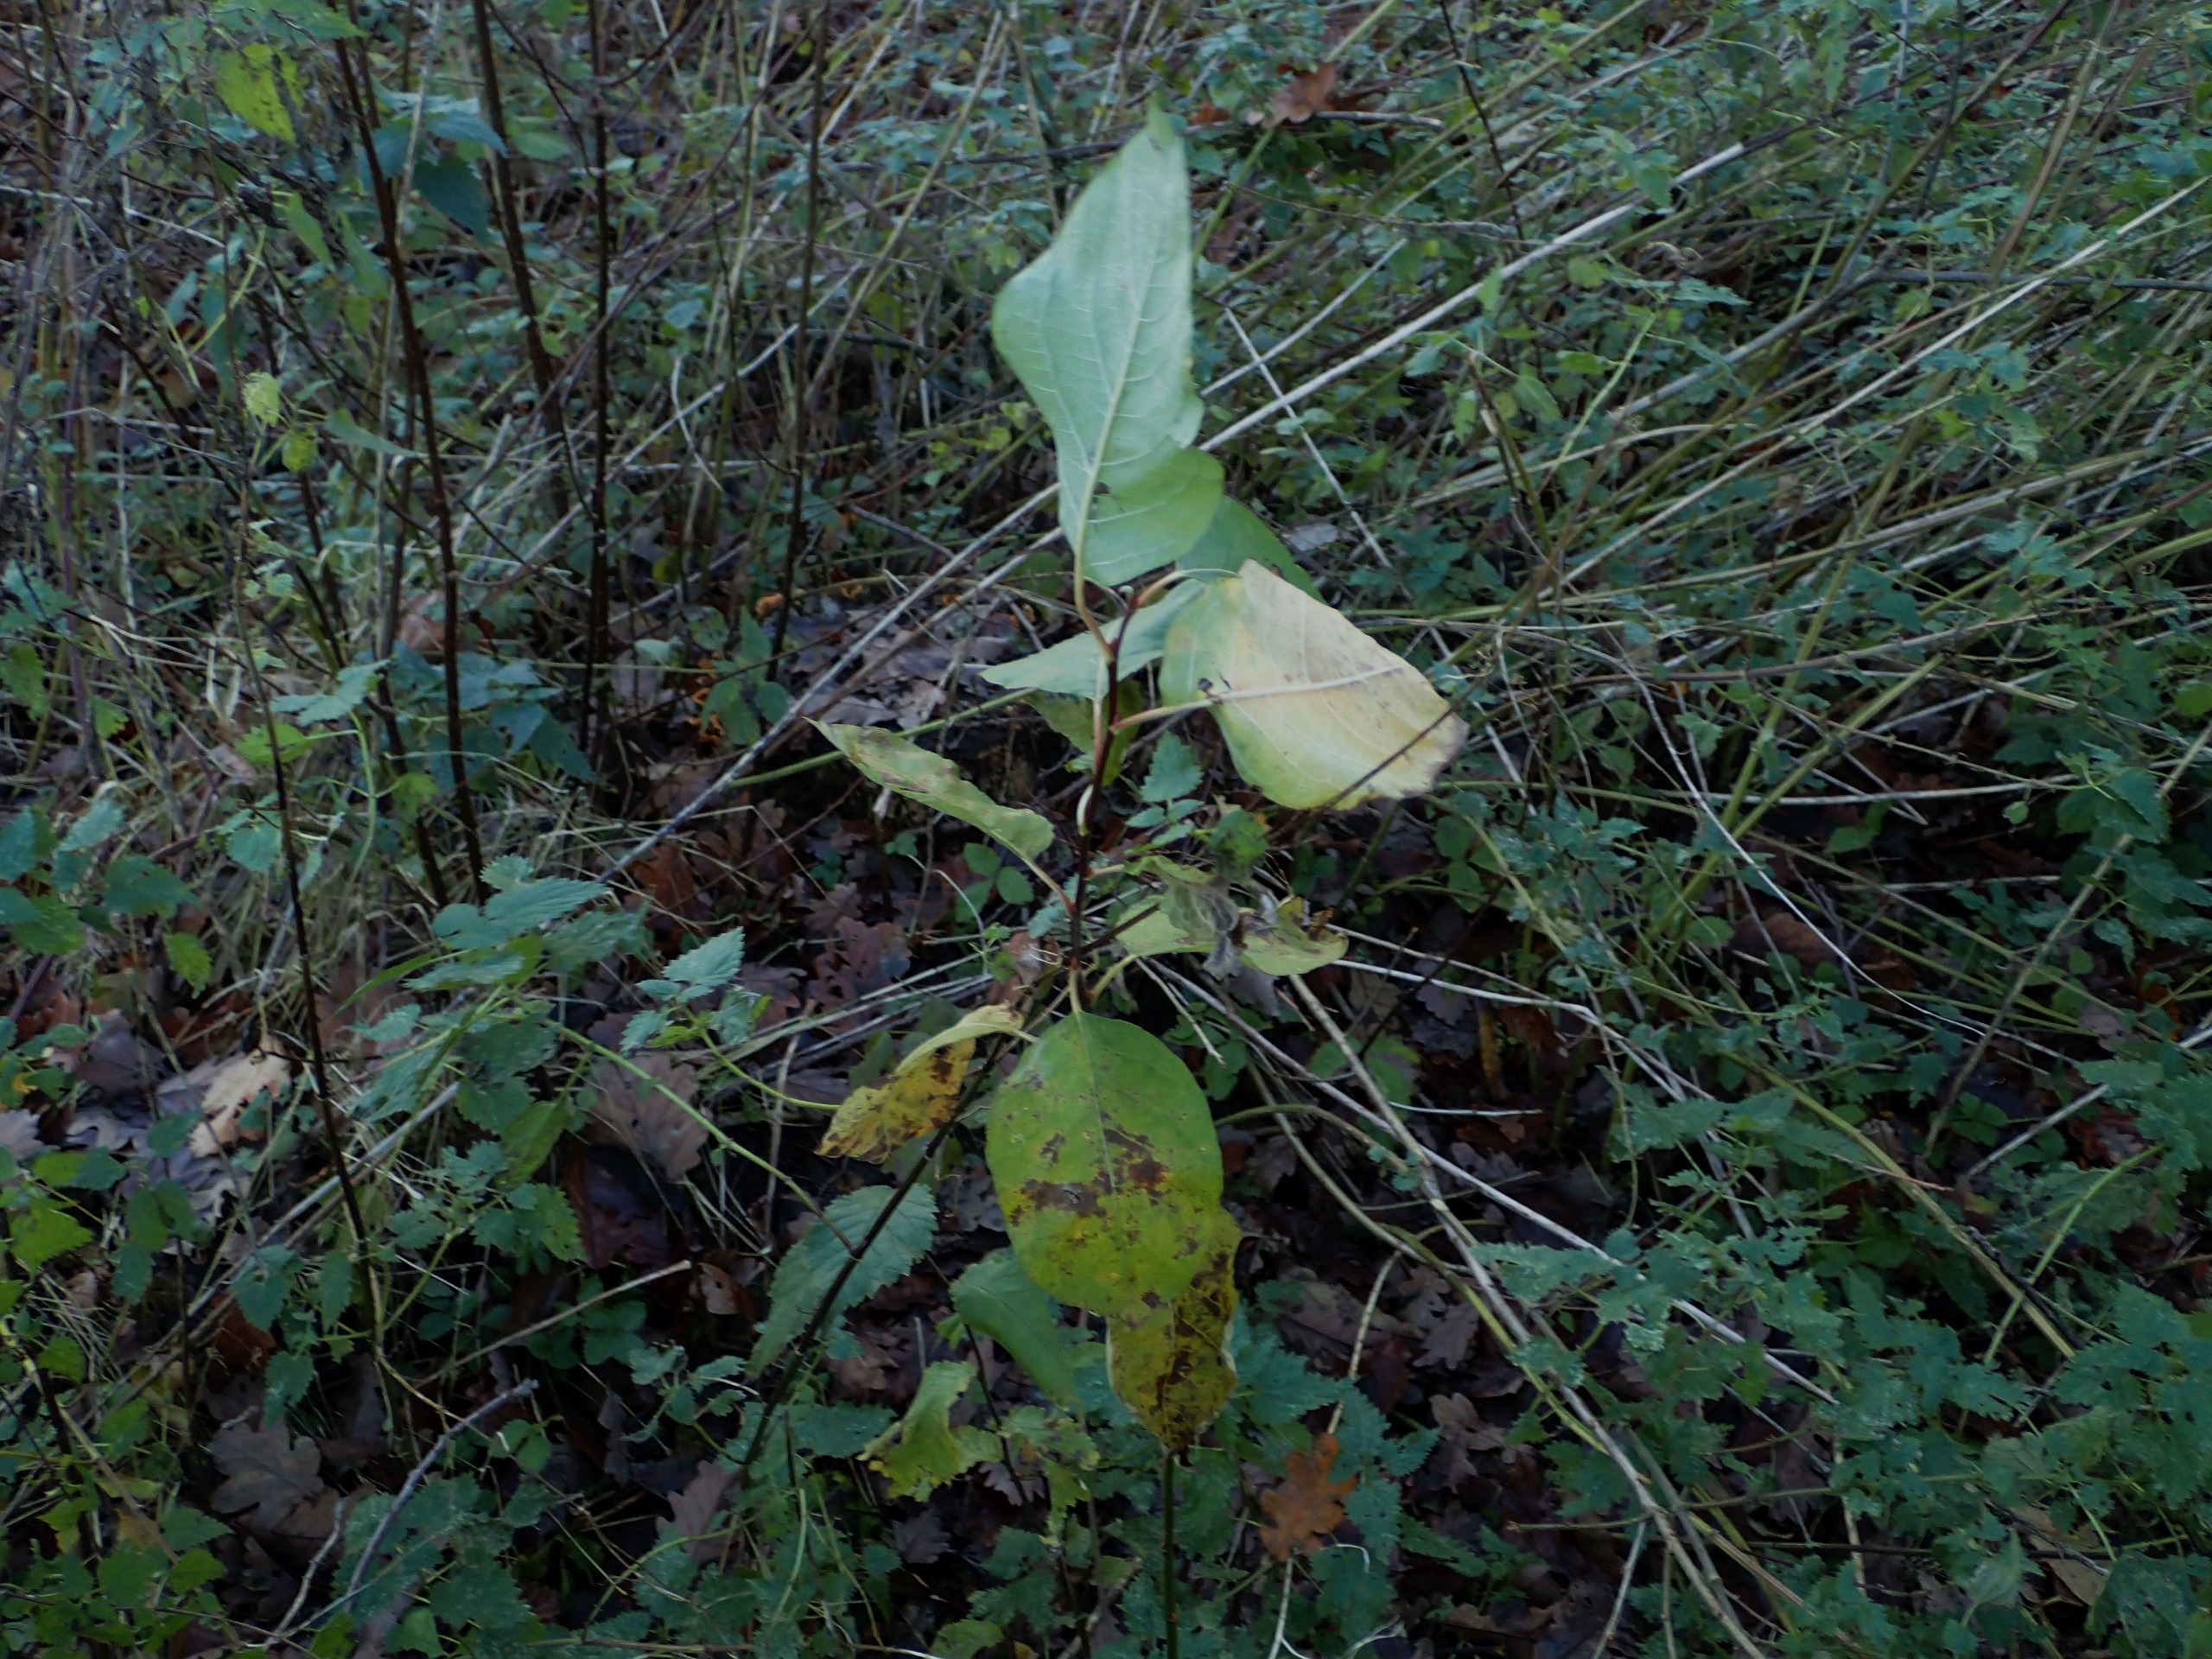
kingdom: Plantae
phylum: Tracheophyta
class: Magnoliopsida
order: Malpighiales
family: Salicaceae
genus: Salix
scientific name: Salix caprea
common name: Selje-pil
